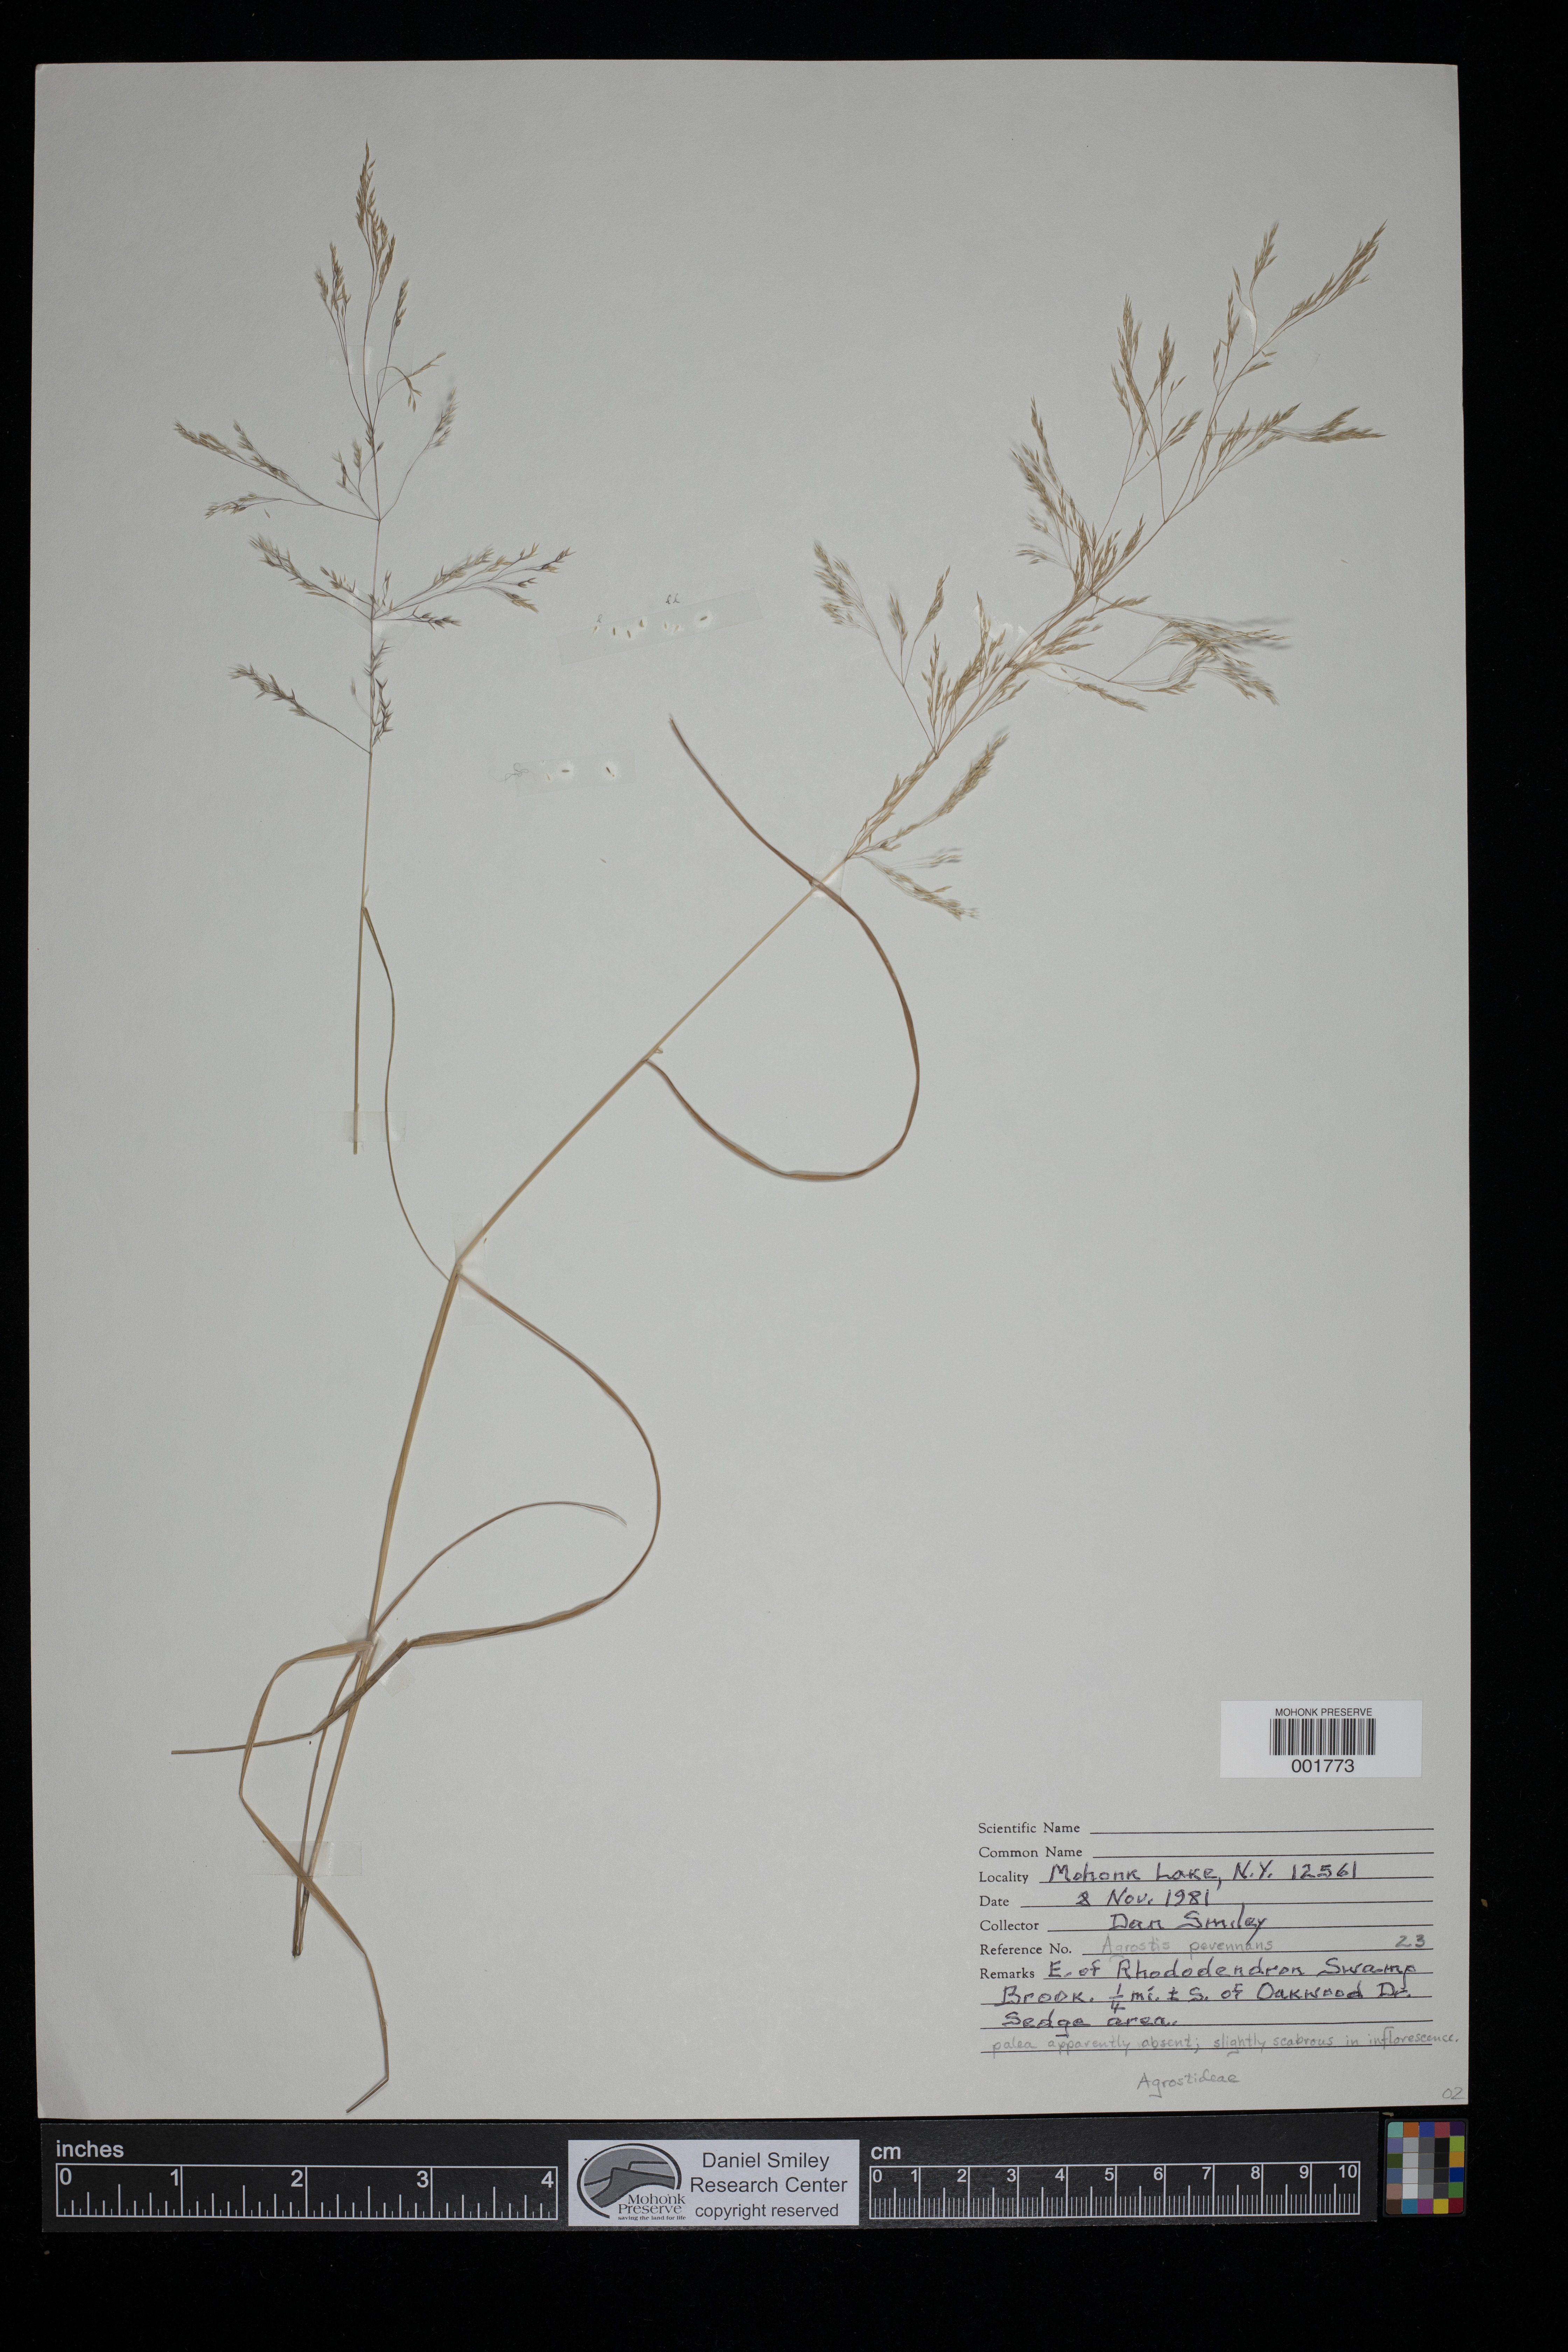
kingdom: Plantae
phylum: Tracheophyta
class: Liliopsida
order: Poales
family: Poaceae
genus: Agrostis
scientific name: Agrostis perennans
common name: Autumn bent
